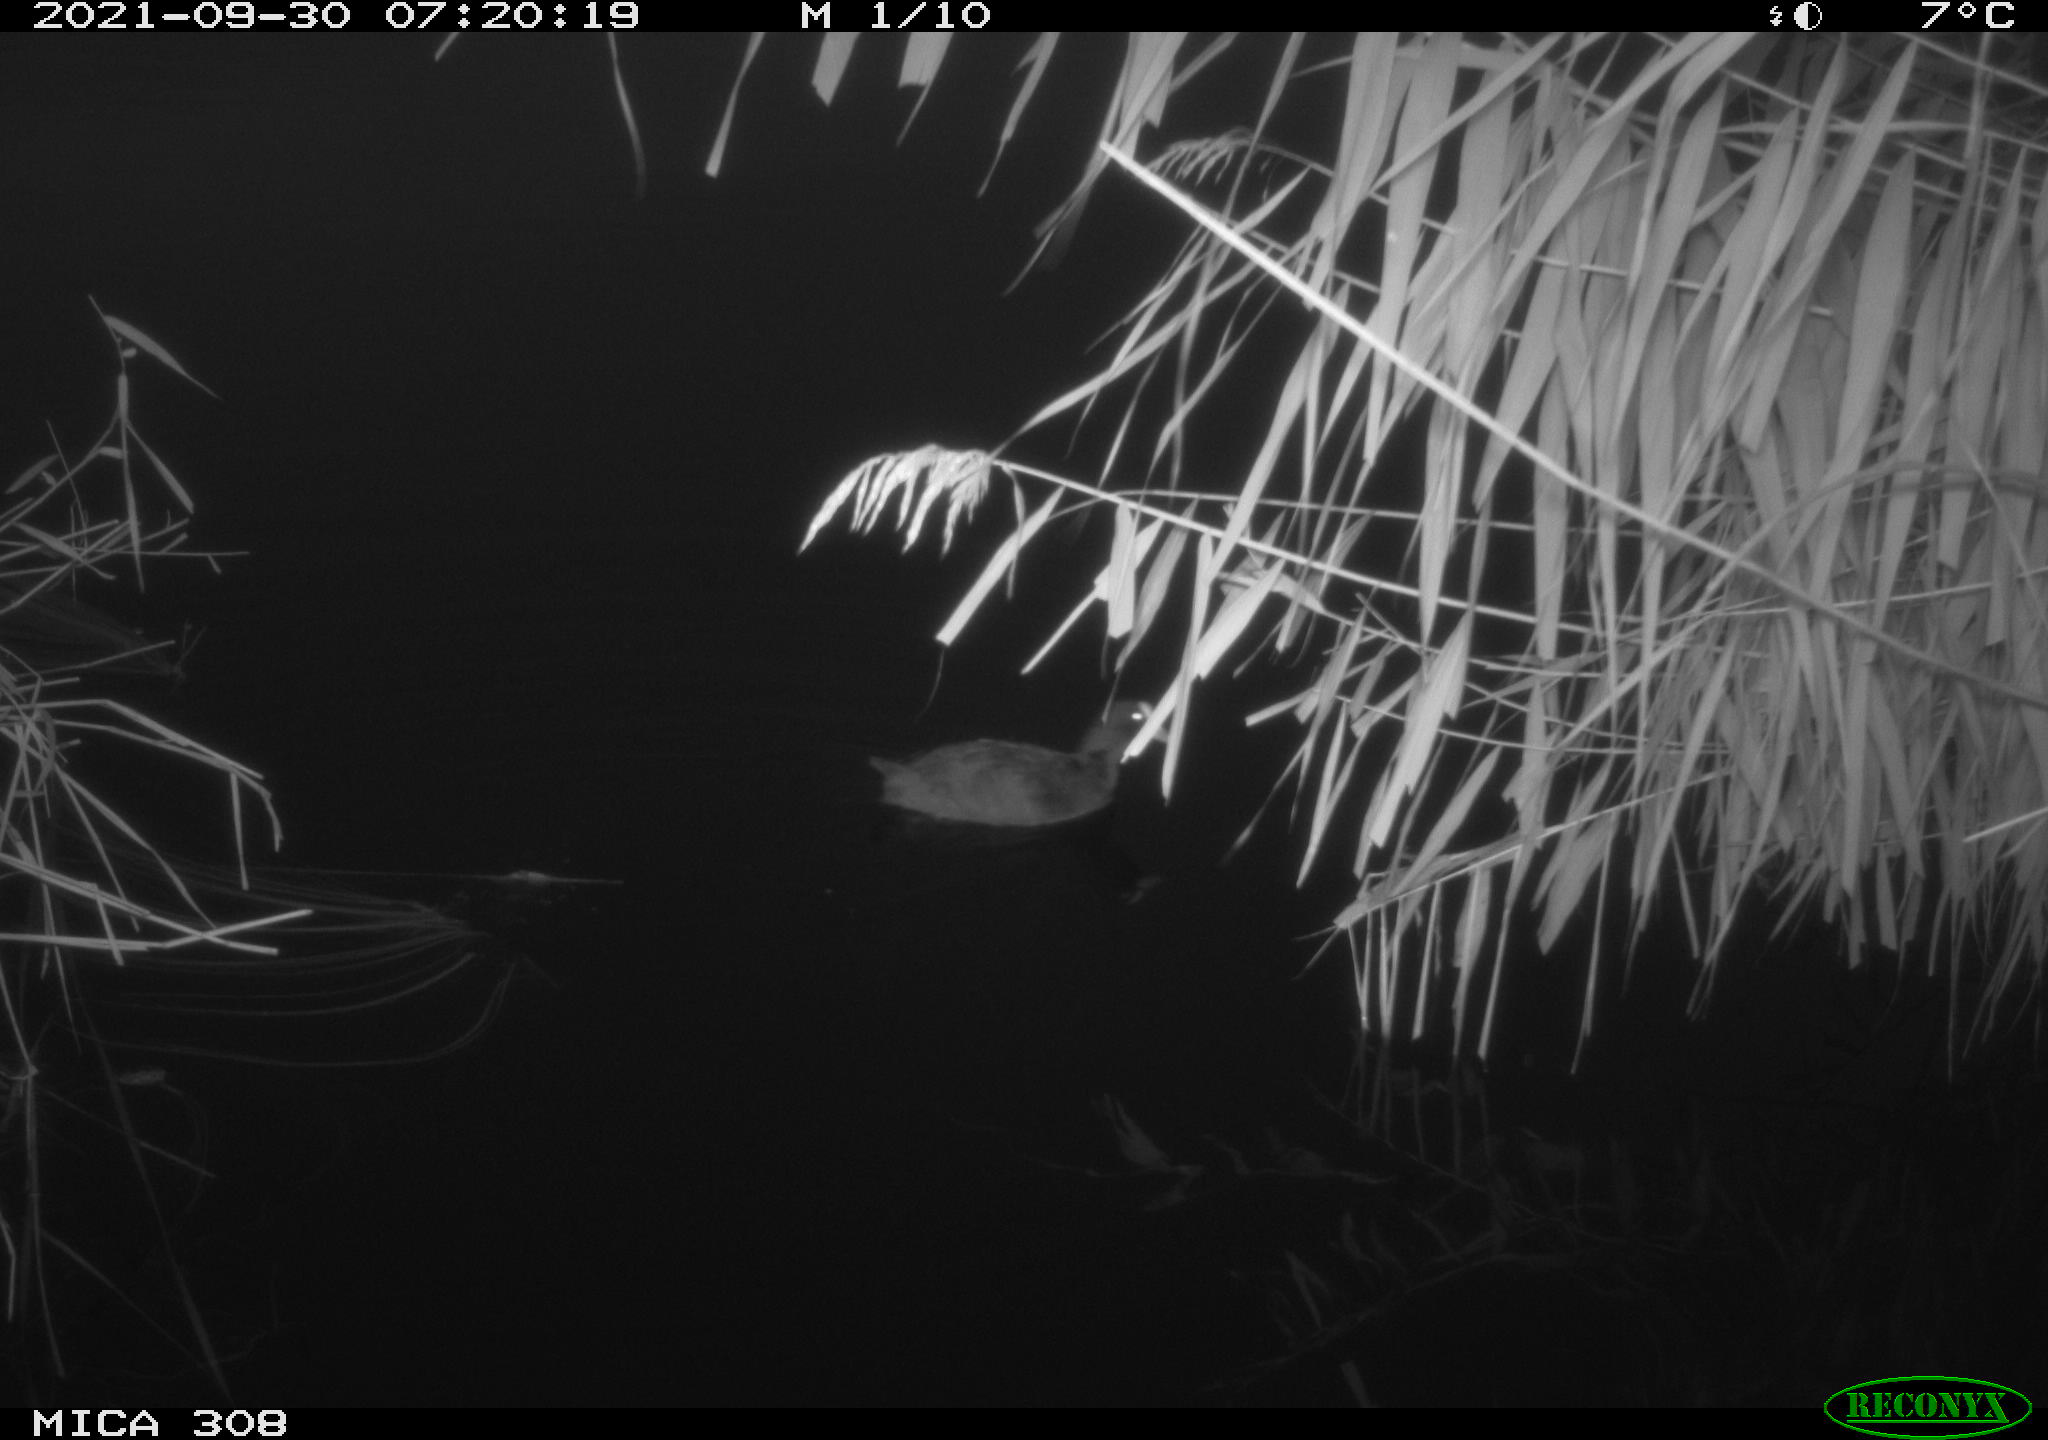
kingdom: Animalia
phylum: Chordata
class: Aves
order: Gruiformes
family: Rallidae
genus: Fulica
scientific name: Fulica atra
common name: Eurasian coot
